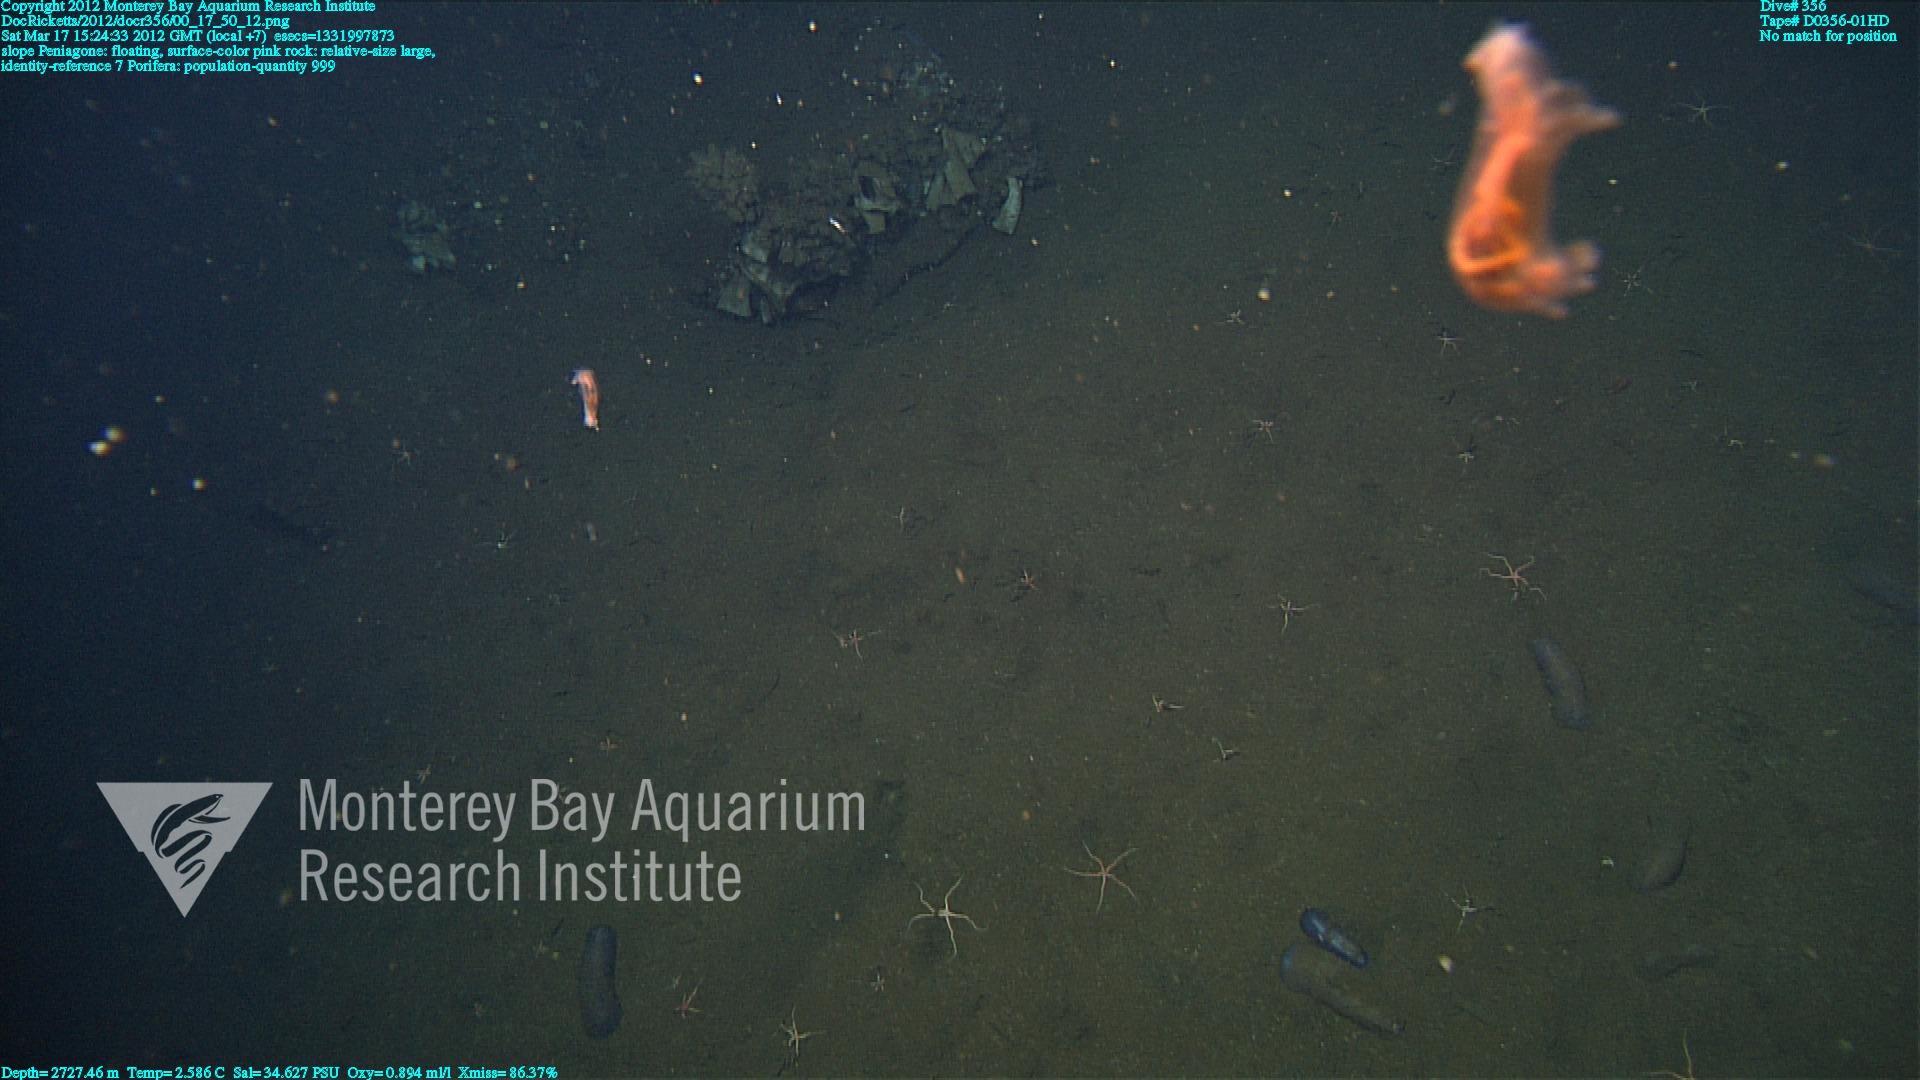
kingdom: Animalia
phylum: Porifera
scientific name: Porifera
